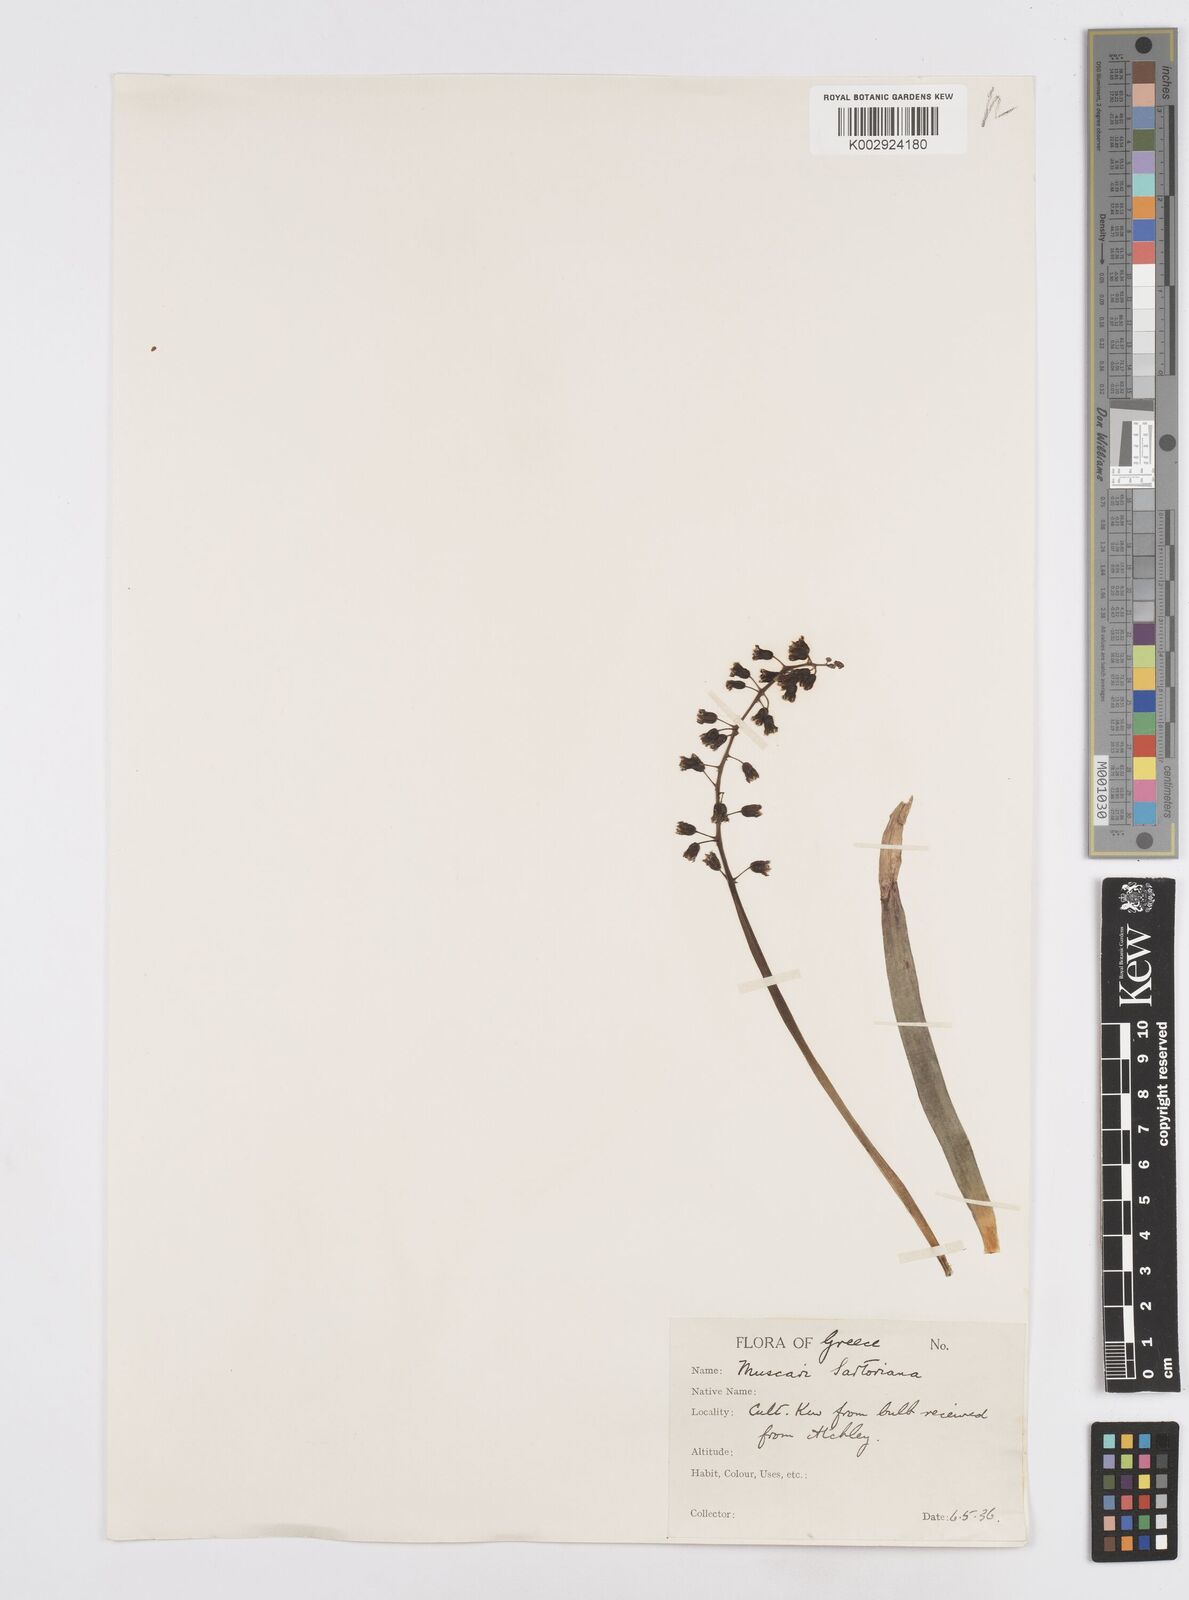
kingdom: Plantae
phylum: Tracheophyta
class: Liliopsida
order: Asparagales
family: Asparagaceae
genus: Bellevalia
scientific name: Bellevalia
